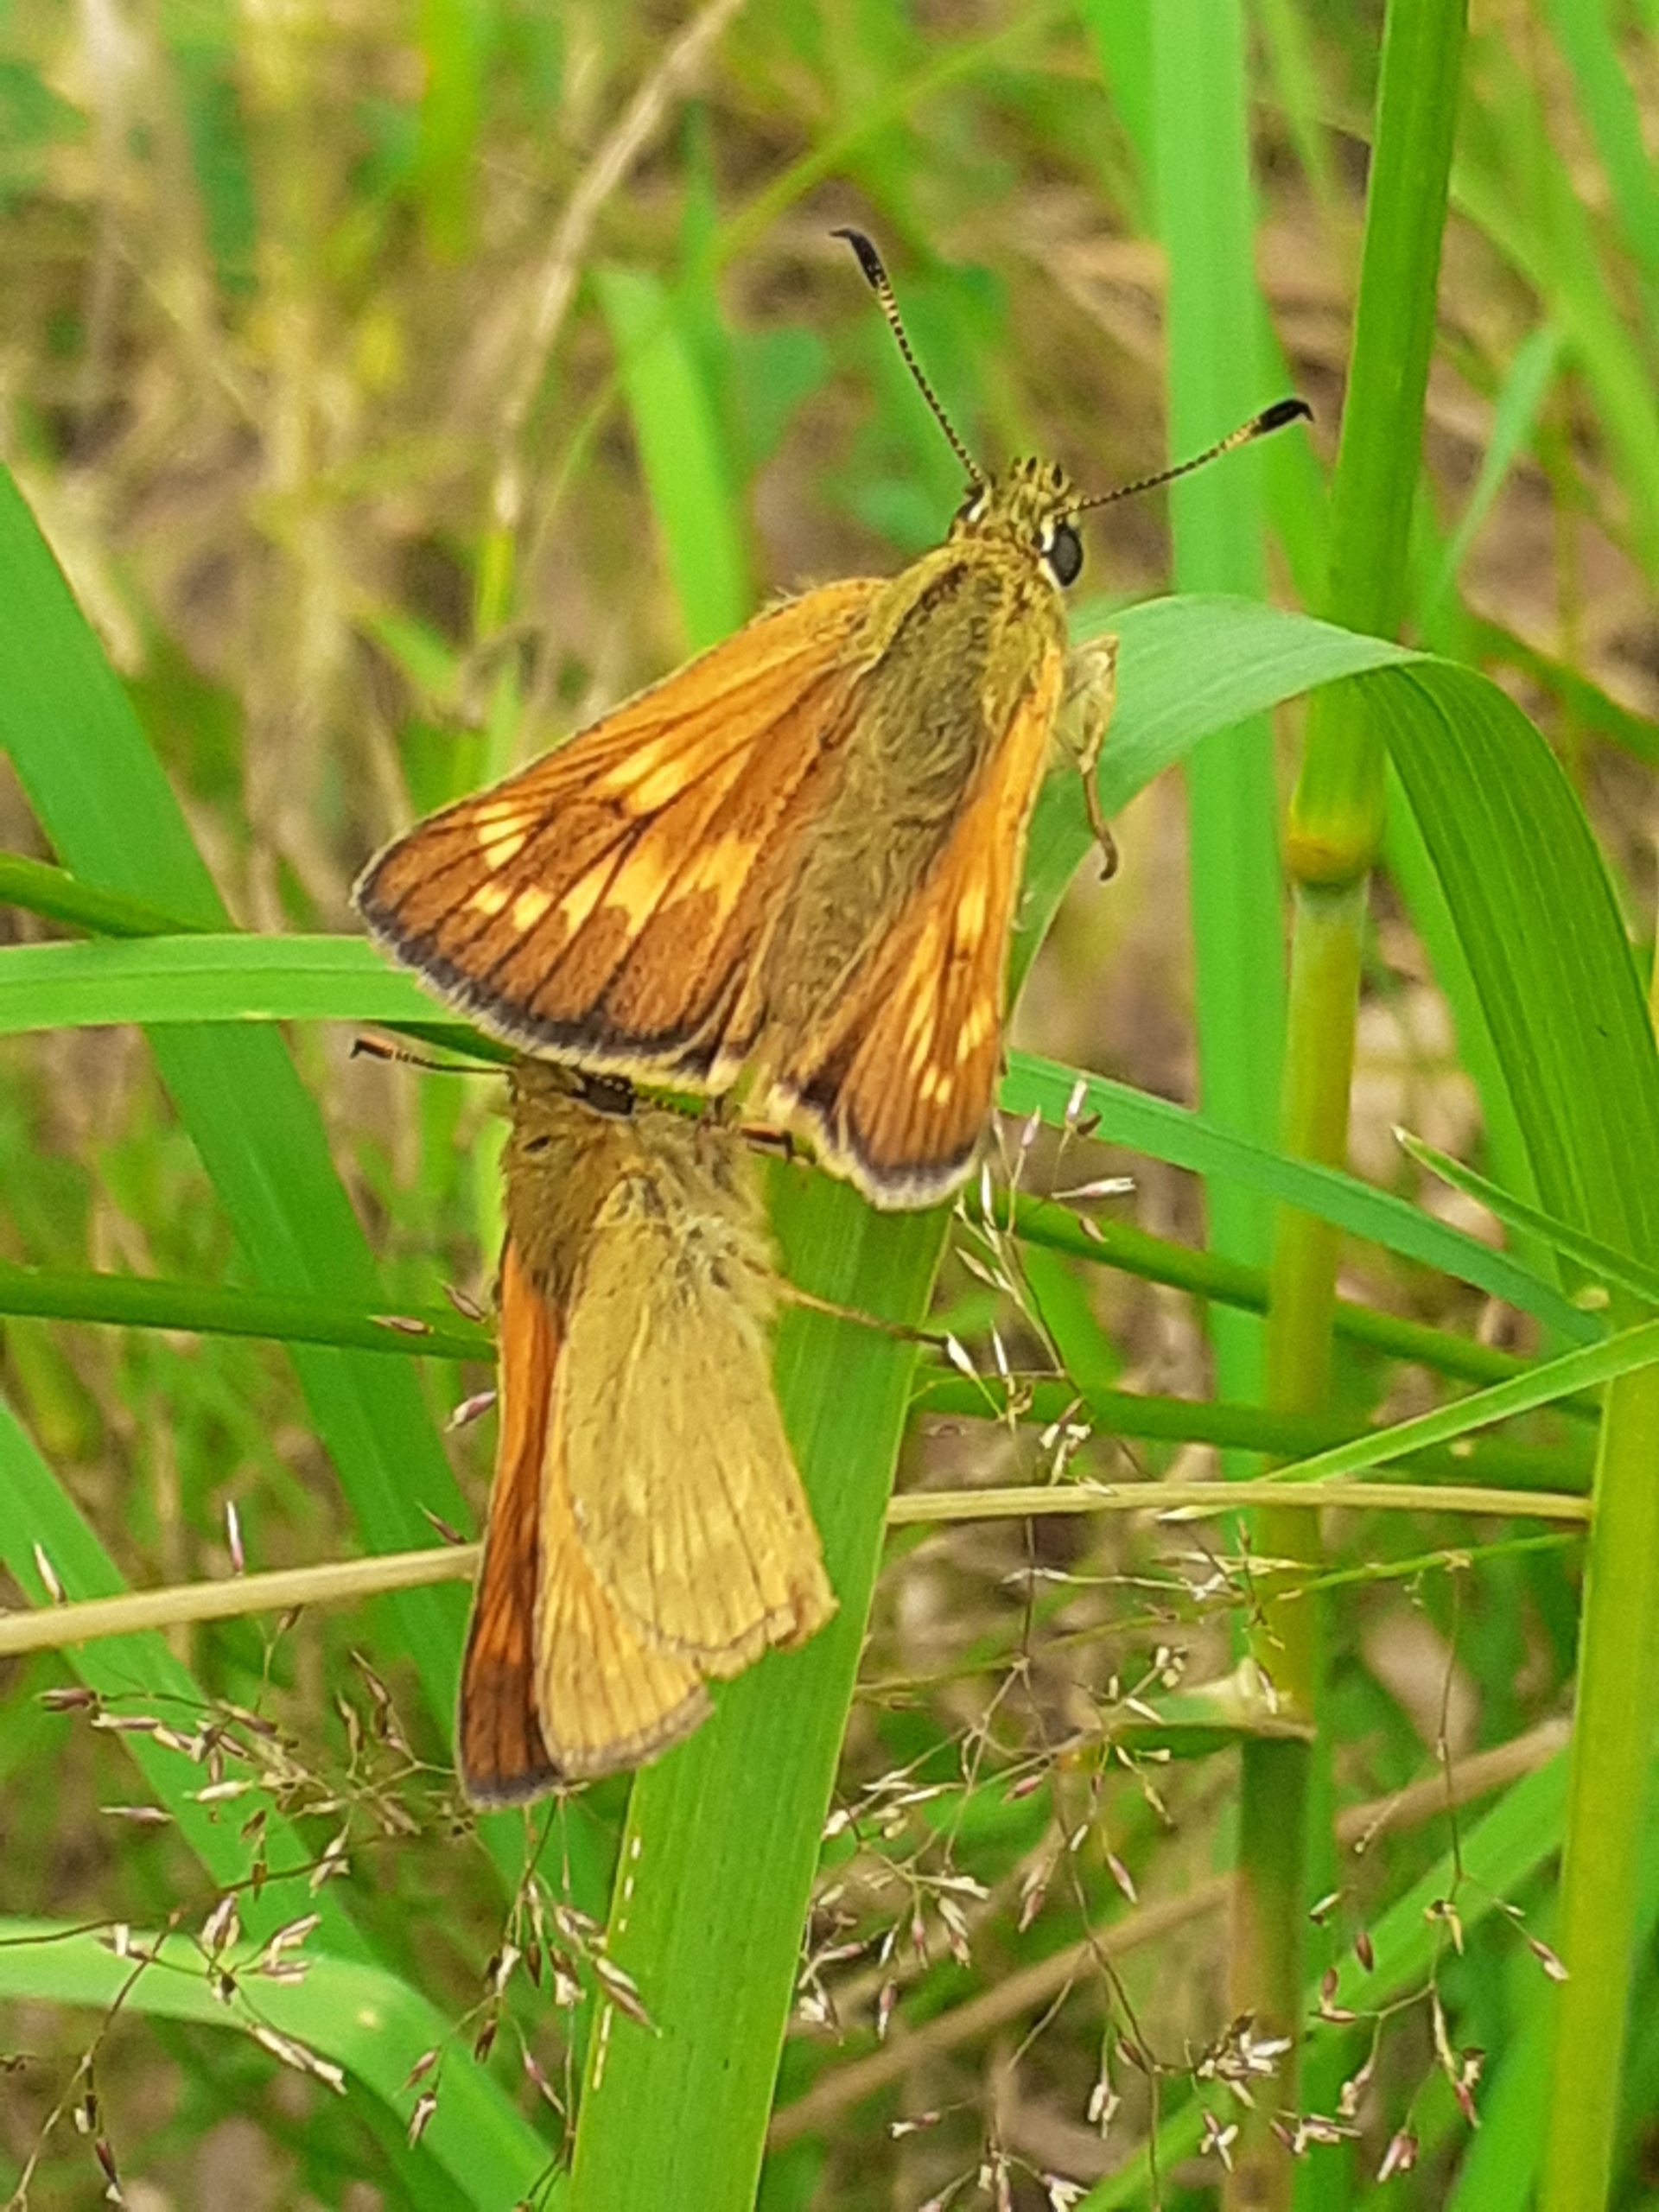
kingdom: Animalia
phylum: Arthropoda
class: Insecta
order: Lepidoptera
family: Hesperiidae
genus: Ochlodes
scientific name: Ochlodes venata
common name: Stor bredpande
